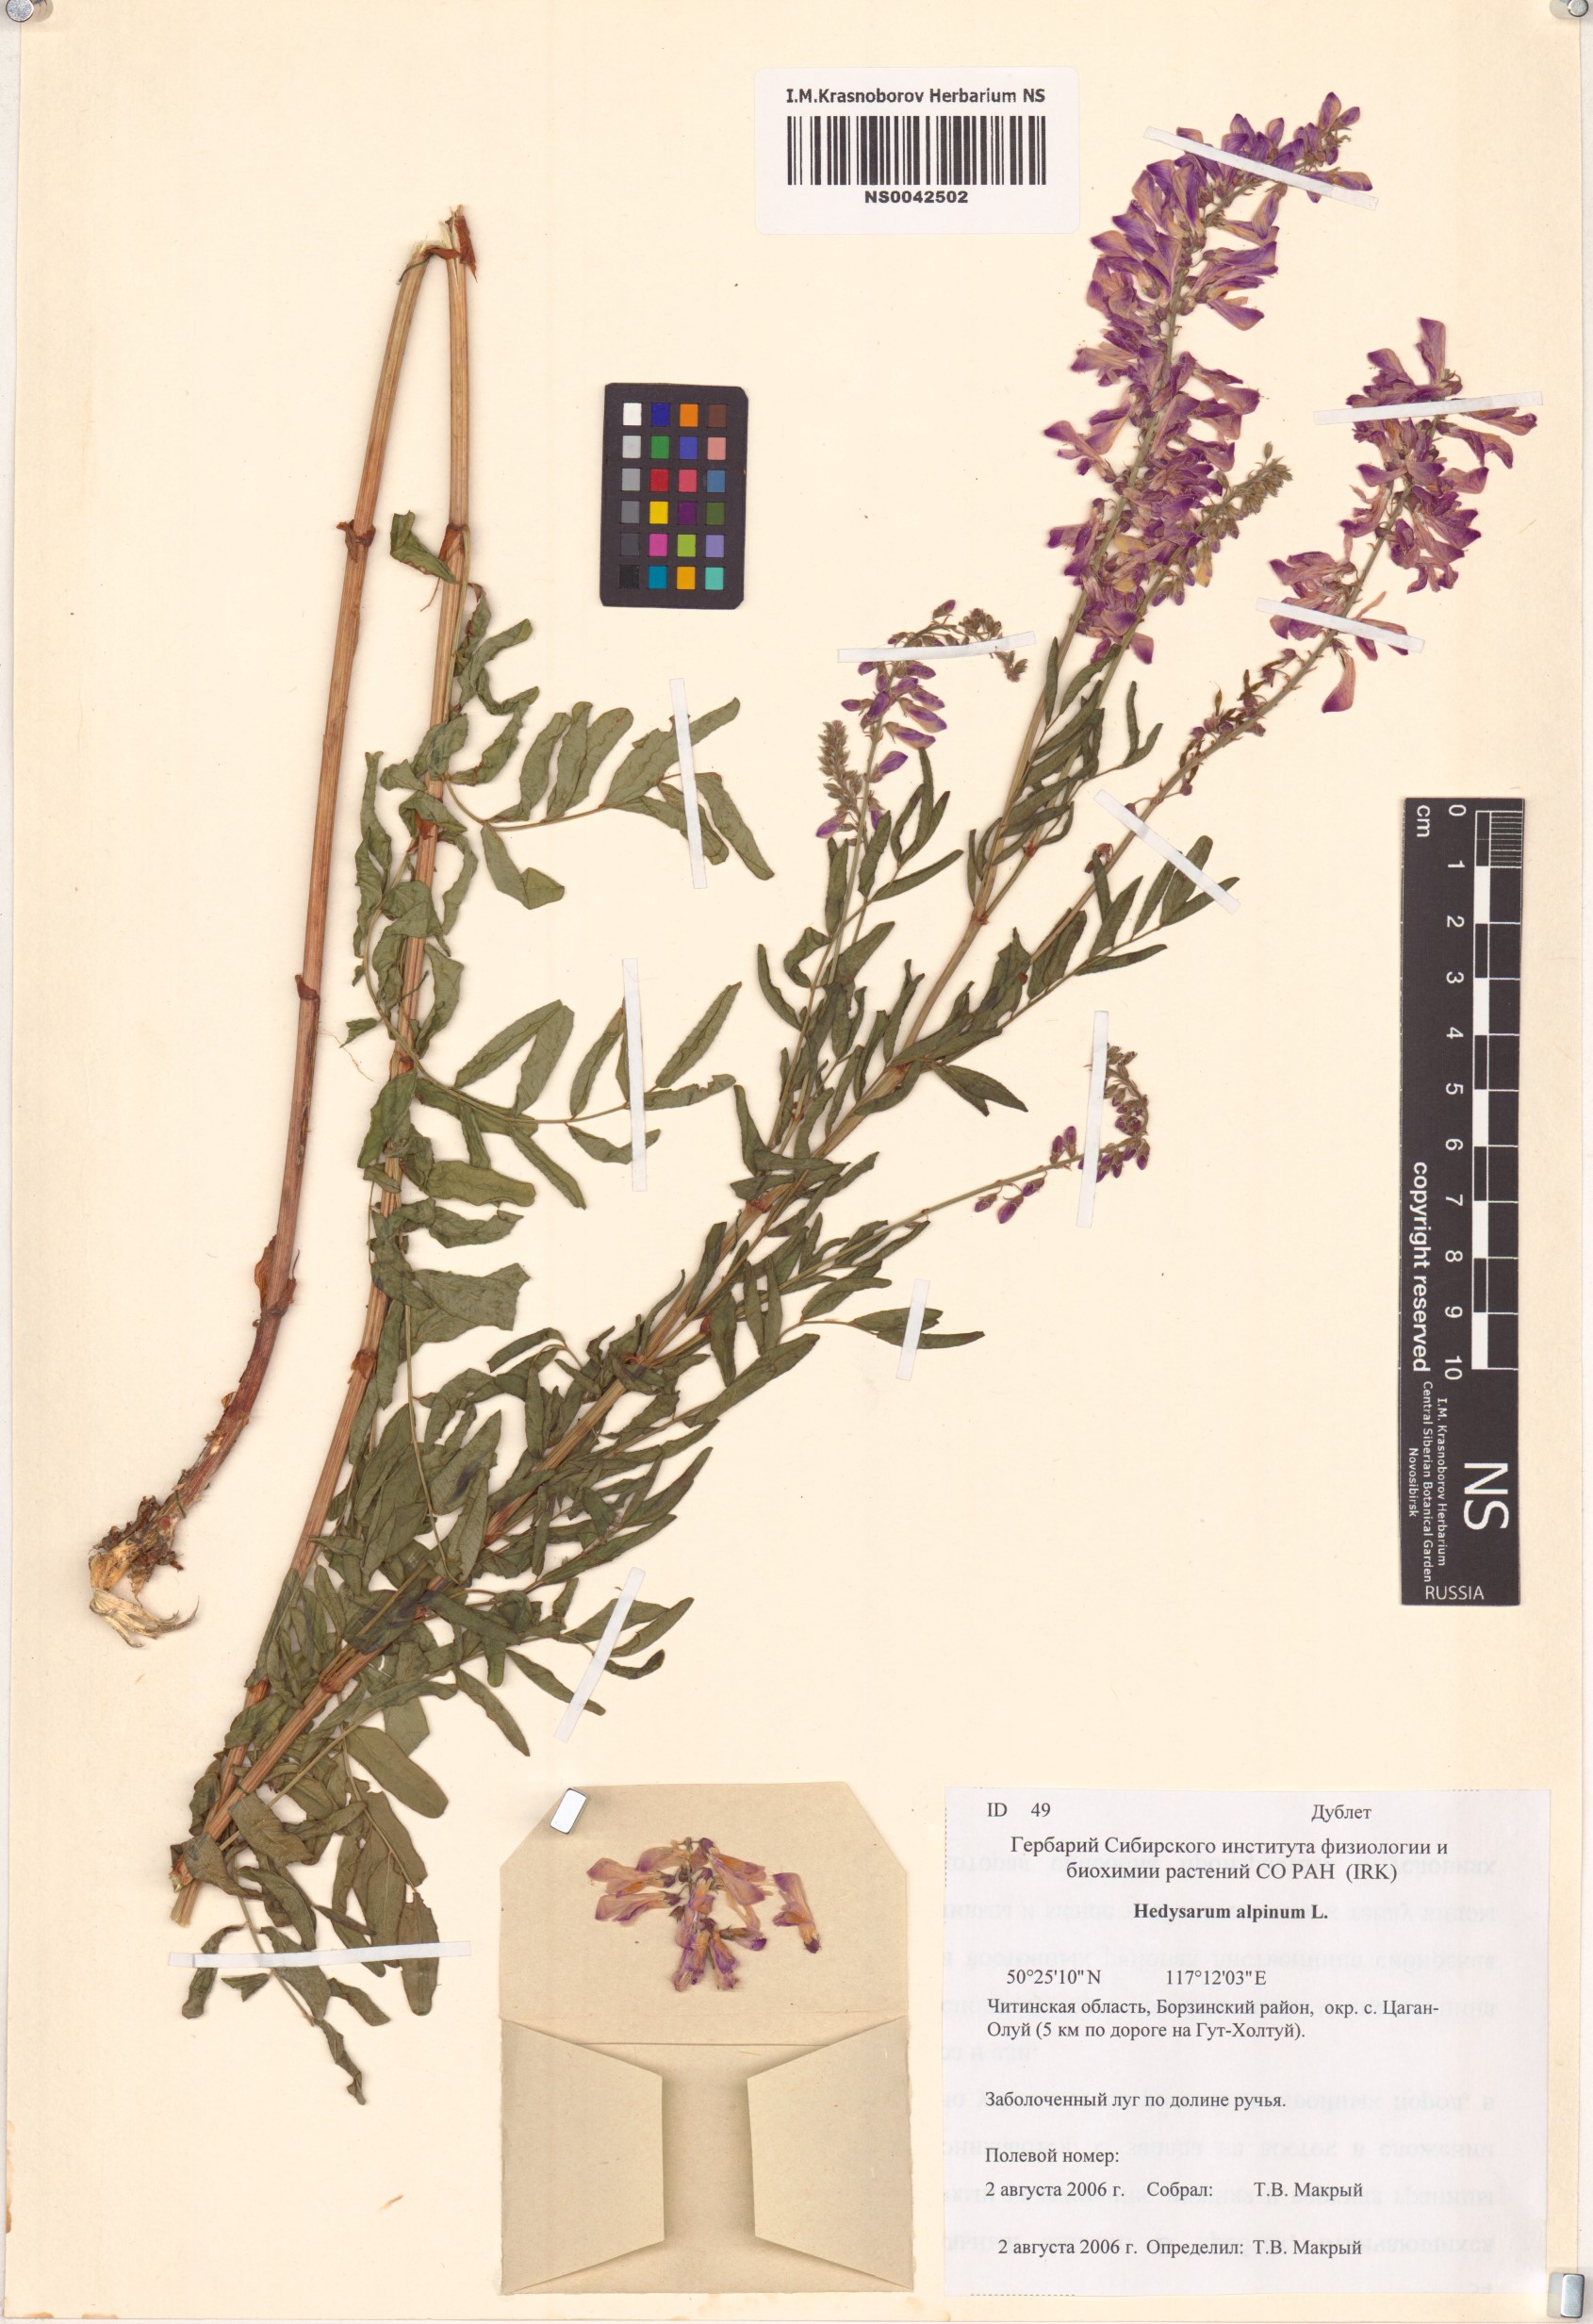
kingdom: Plantae
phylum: Tracheophyta
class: Magnoliopsida
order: Fabales
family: Fabaceae
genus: Hedysarum
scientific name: Hedysarum alpinum
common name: Alpine sweet-vetch
